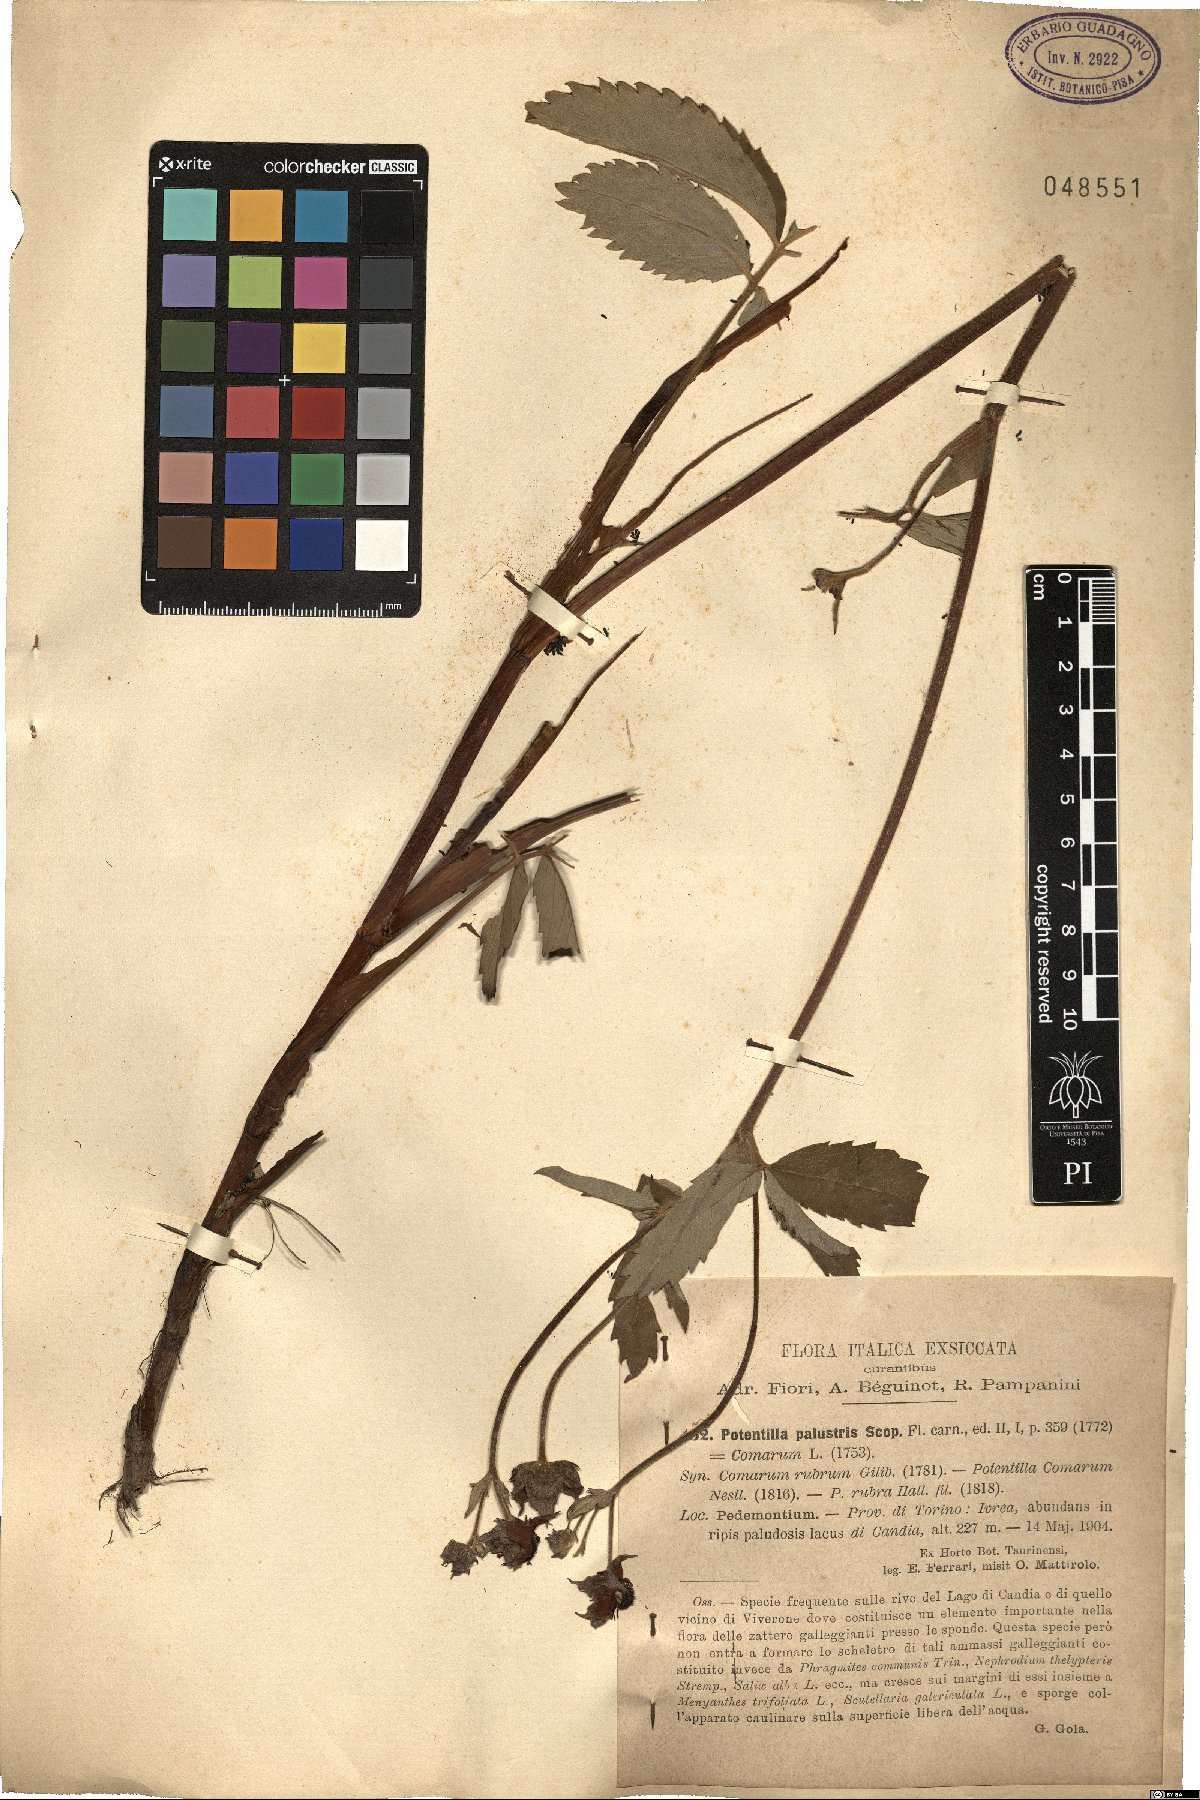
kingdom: Plantae
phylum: Tracheophyta
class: Magnoliopsida
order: Rosales
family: Rosaceae
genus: Comarum
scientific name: Comarum palustre
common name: Marsh cinquefoil
